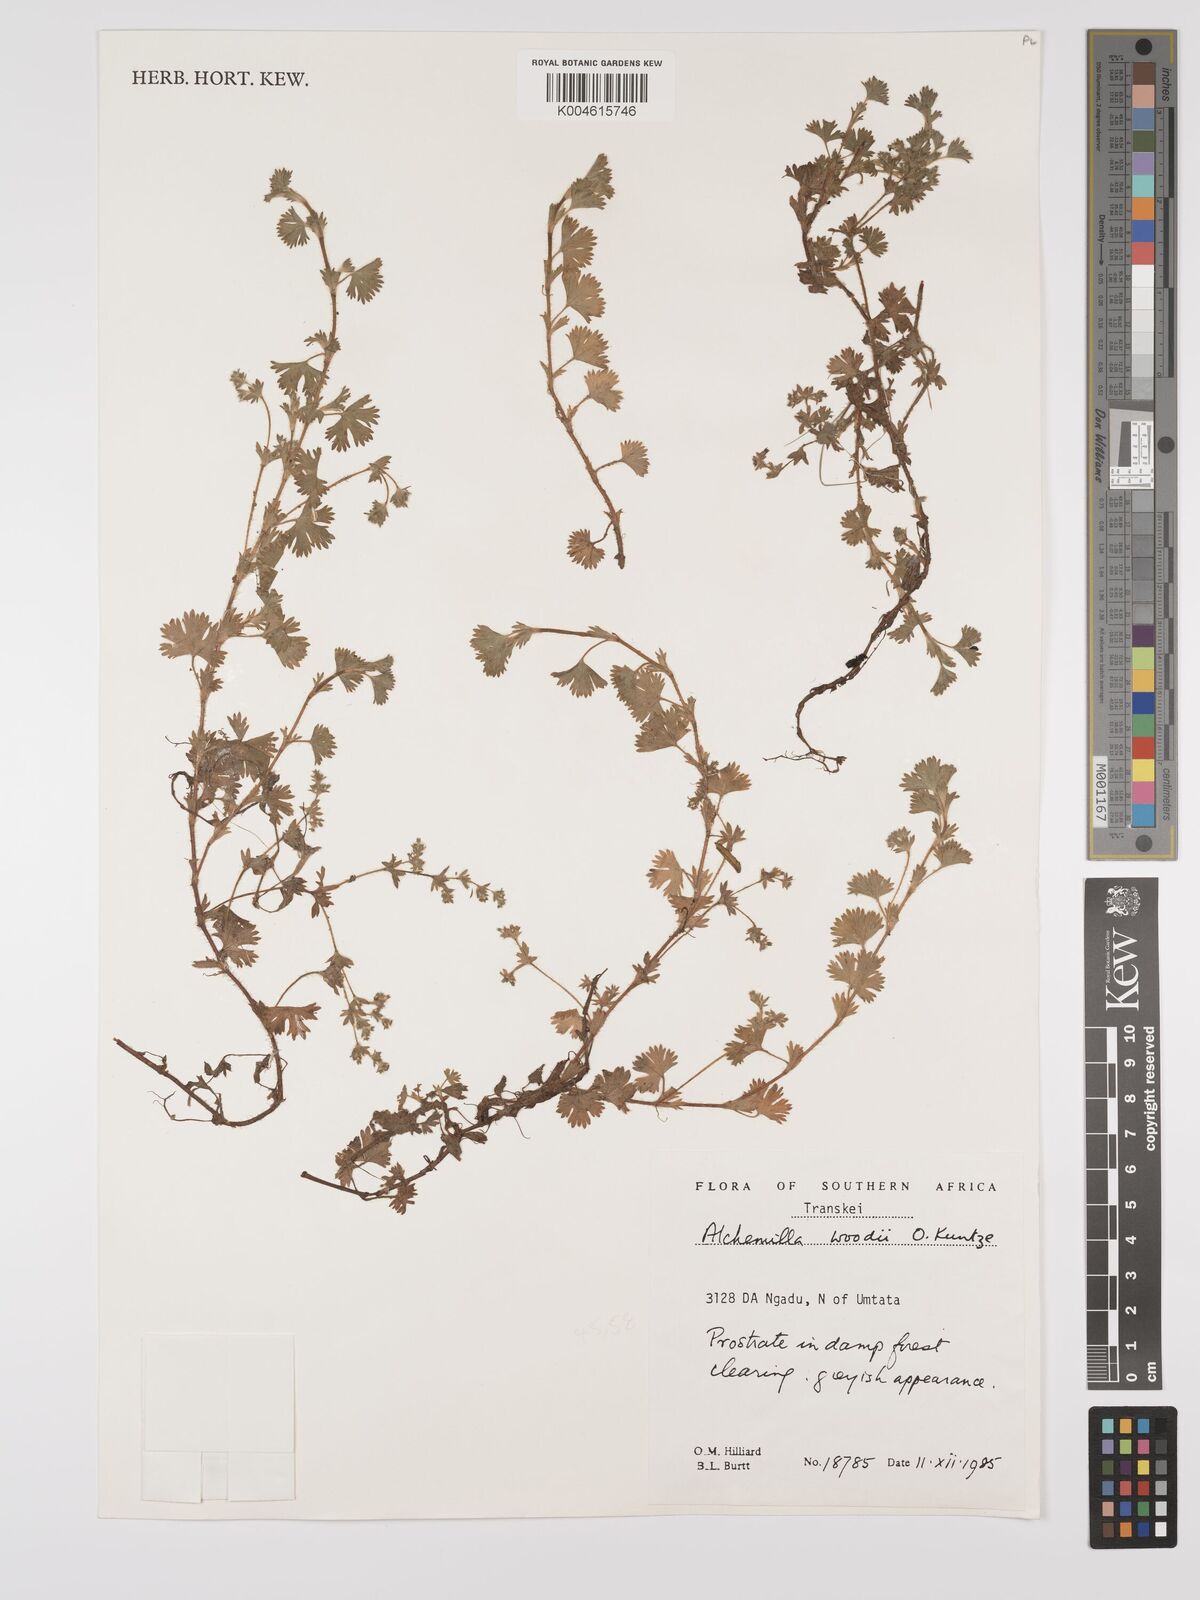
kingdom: Plantae
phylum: Tracheophyta
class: Magnoliopsida
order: Rosales
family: Rosaceae
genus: Alchemilla
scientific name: Alchemilla woodii
